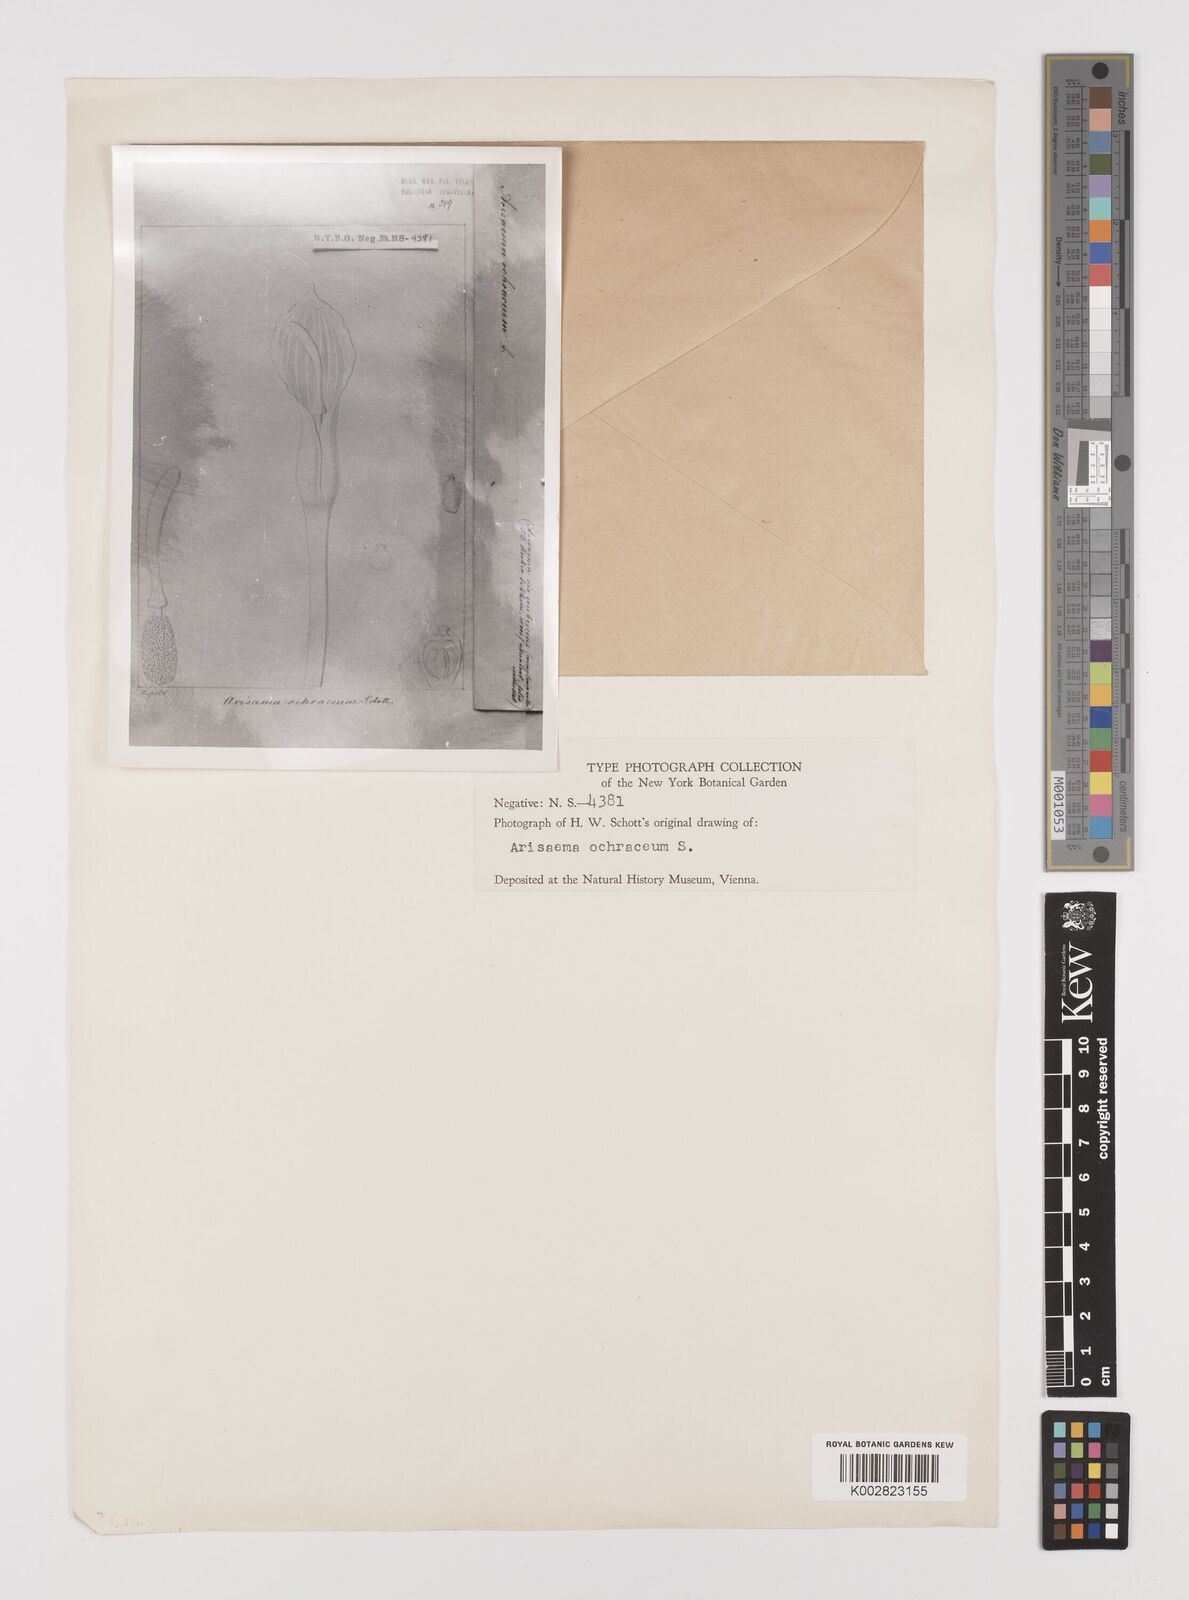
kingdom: Plantae
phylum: Tracheophyta
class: Liliopsida
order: Alismatales
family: Araceae
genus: Arisaema
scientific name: Arisaema
